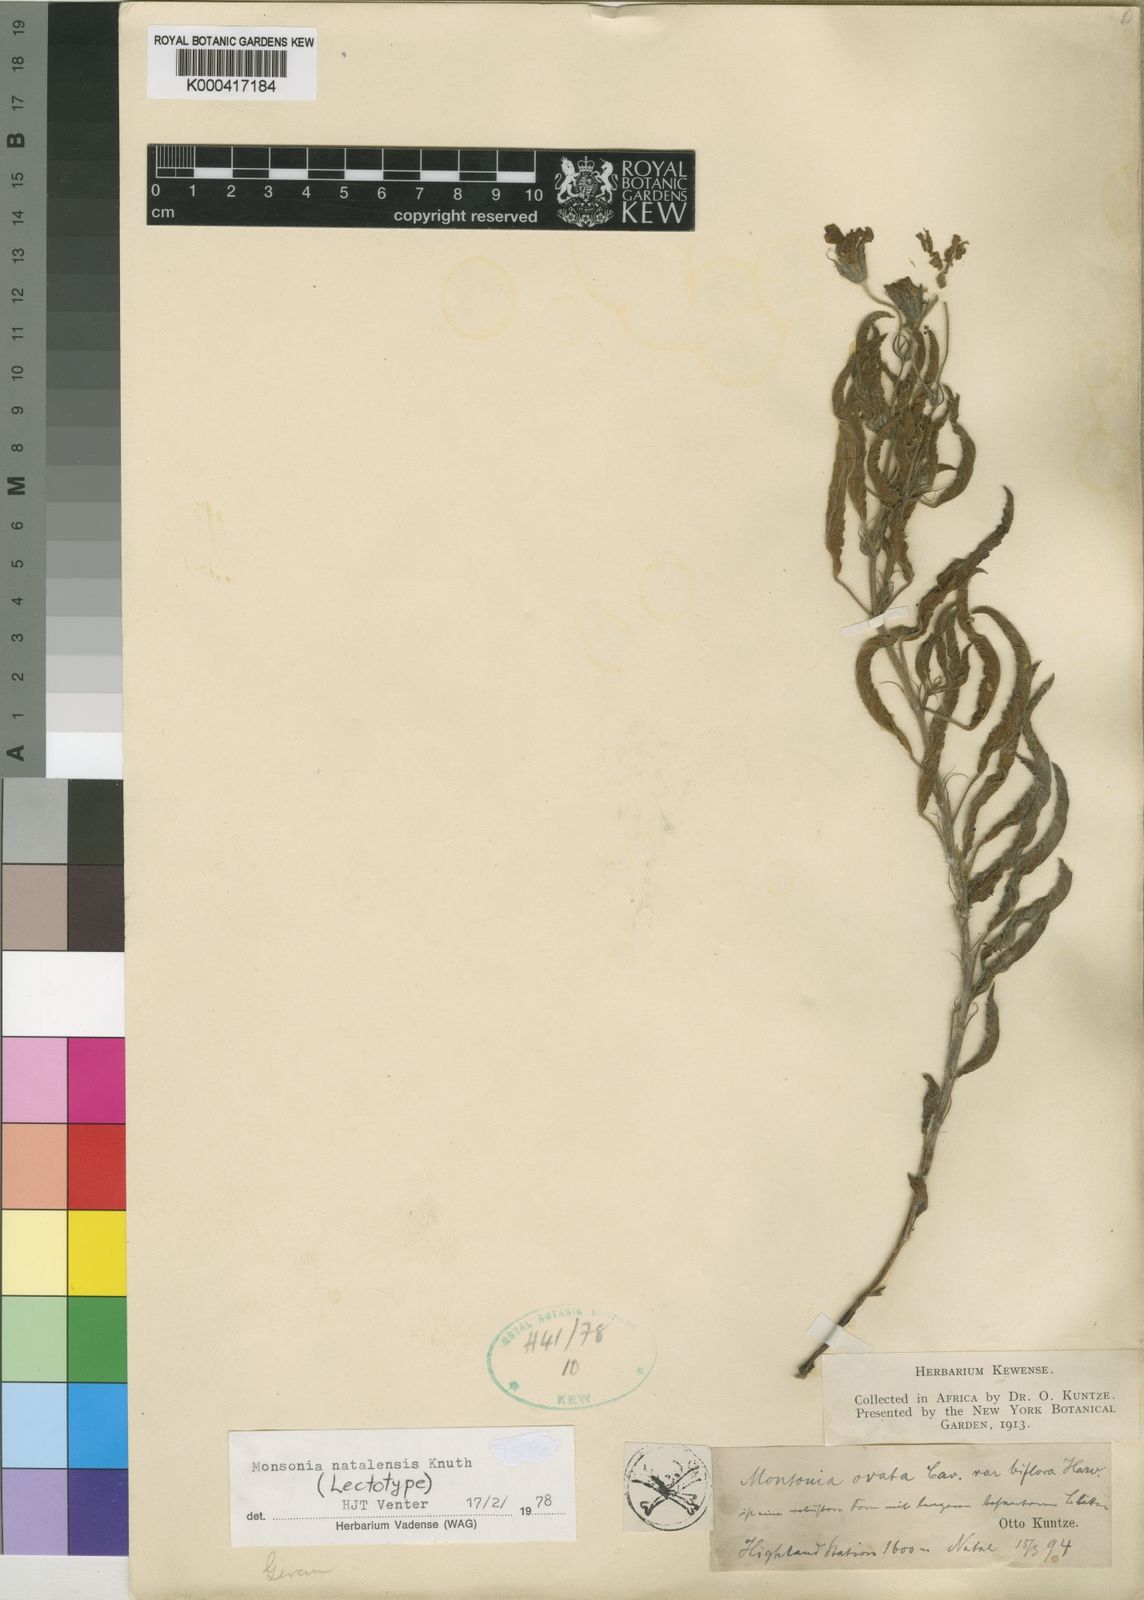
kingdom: Plantae
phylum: Tracheophyta
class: Magnoliopsida
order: Geraniales
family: Geraniaceae
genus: Monsonia
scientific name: Monsonia natalensis
